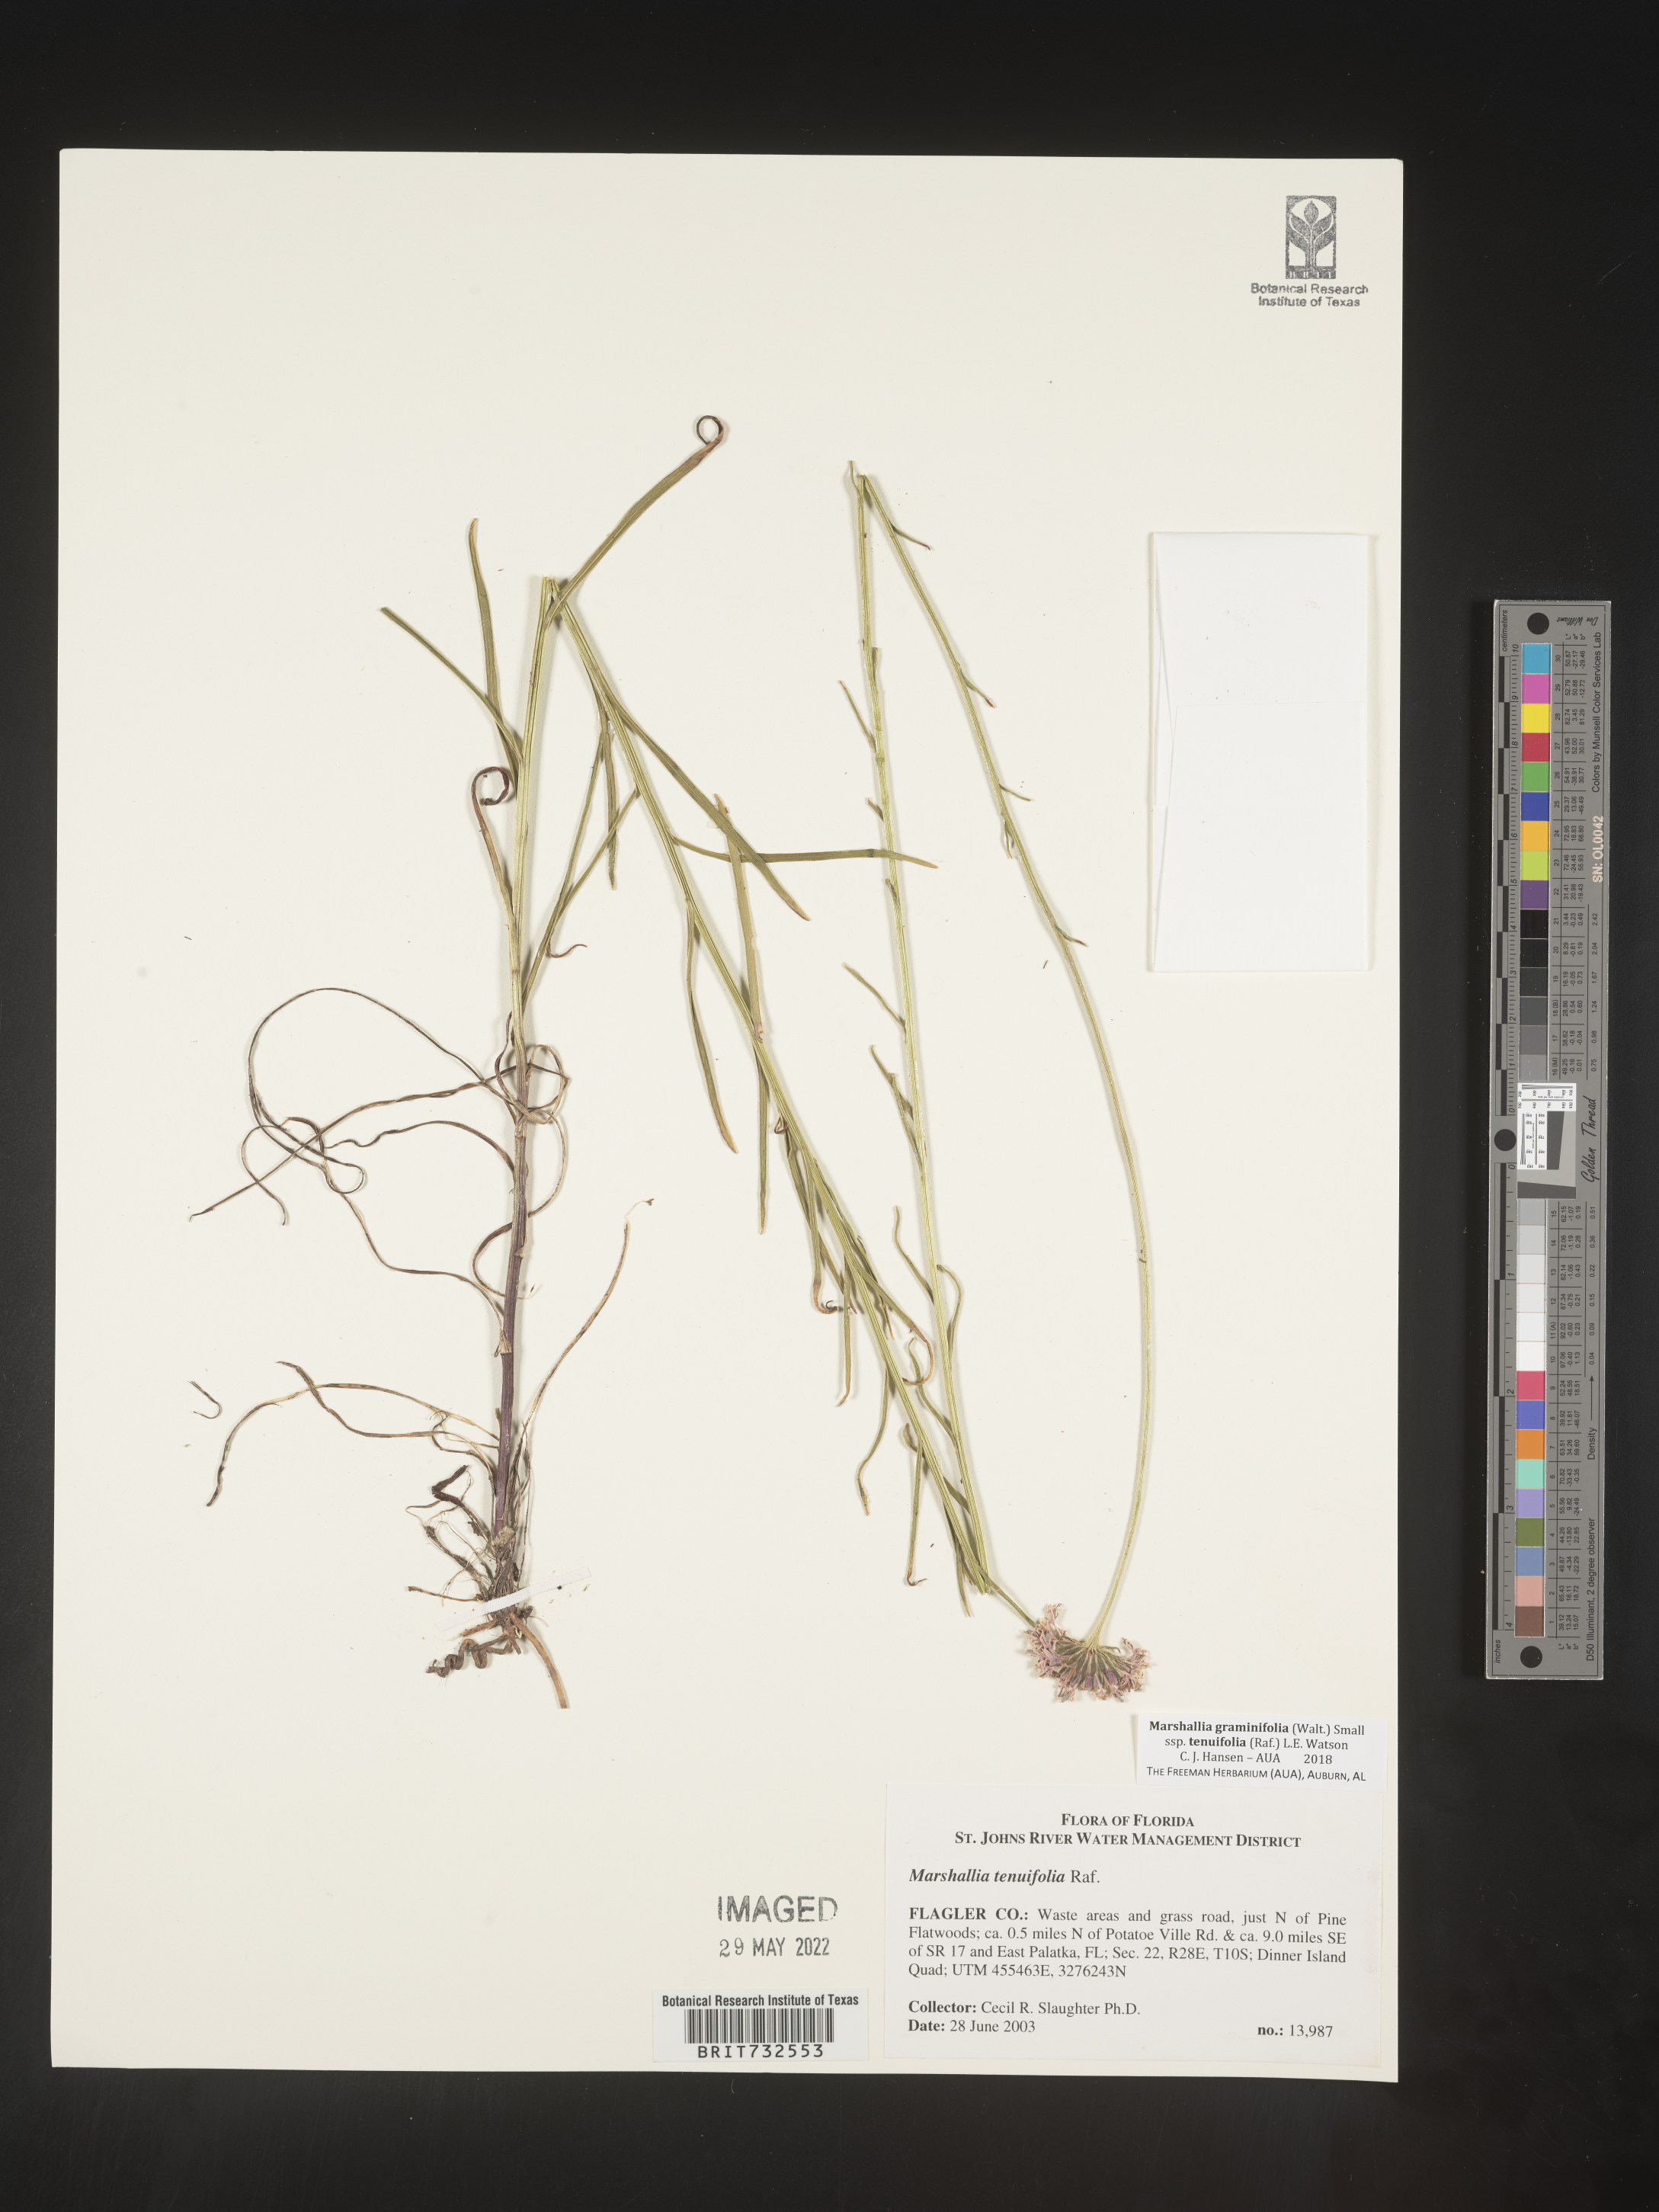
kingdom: Plantae
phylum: Tracheophyta
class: Magnoliopsida
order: Asterales
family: Asteraceae
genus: Marshallia
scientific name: Marshallia graminifolia
